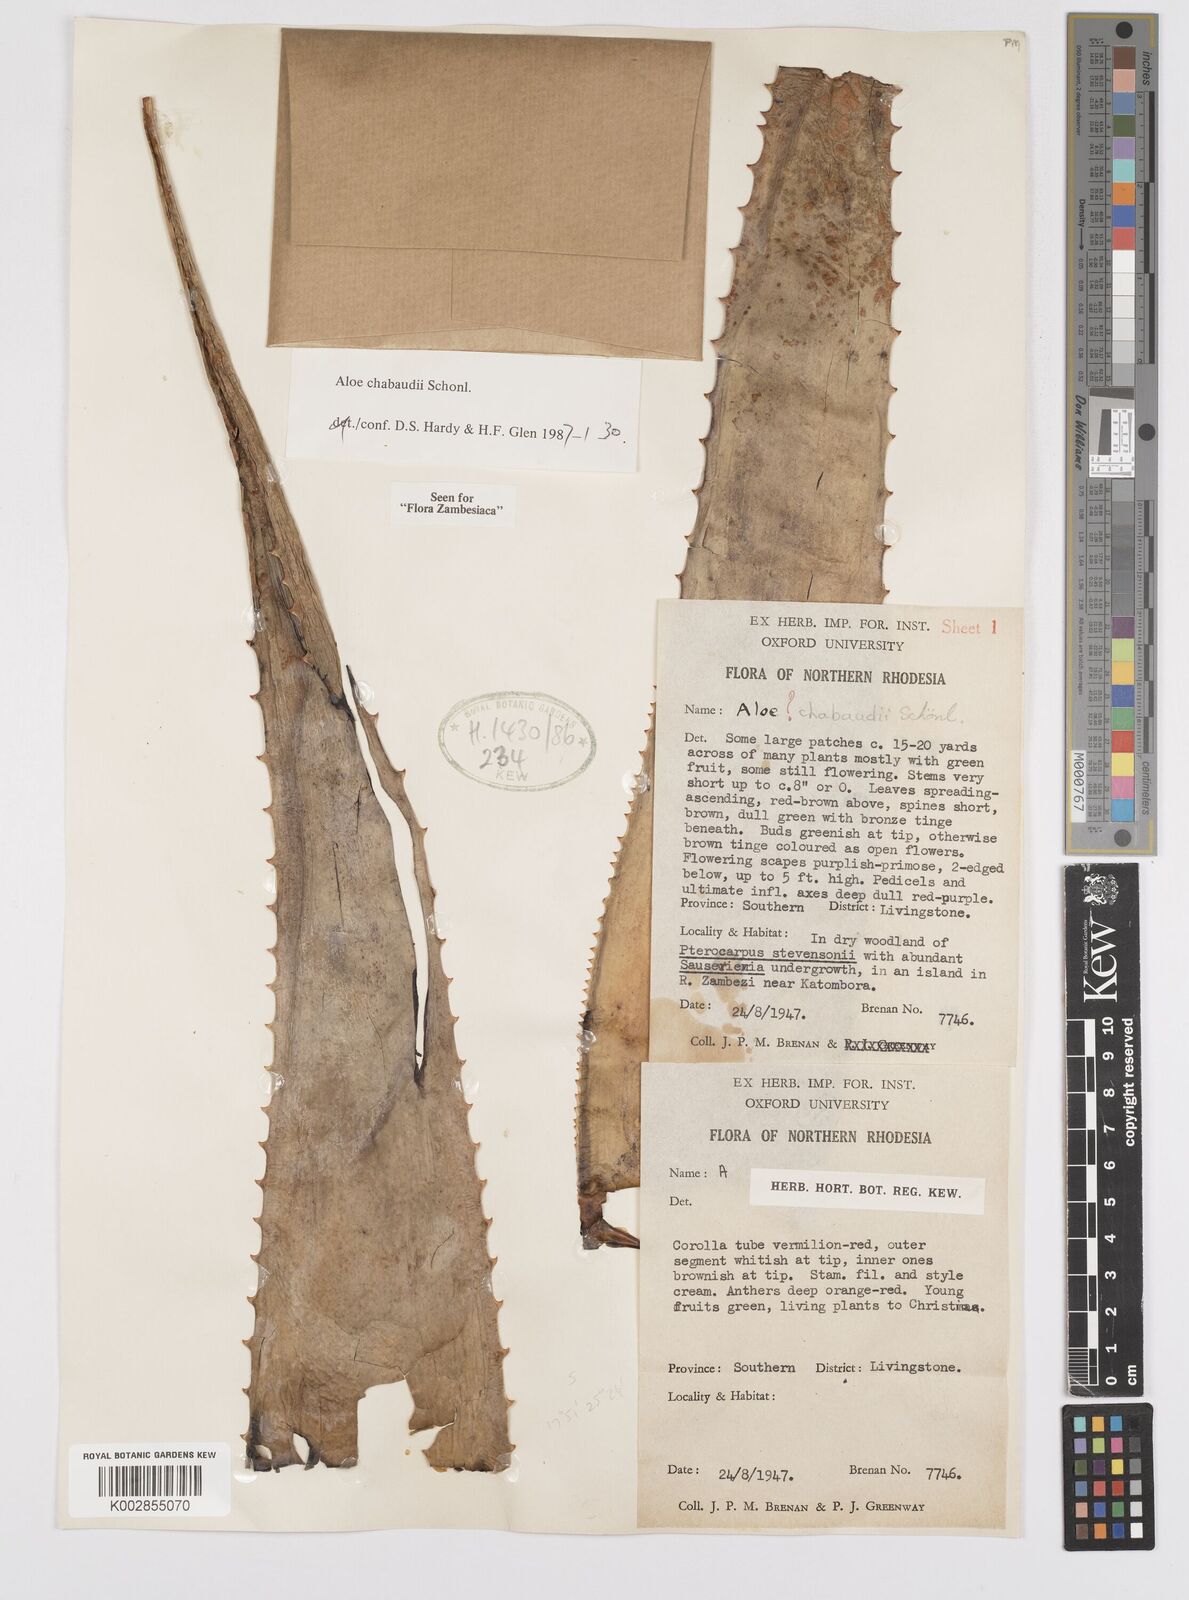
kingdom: Plantae
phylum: Tracheophyta
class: Liliopsida
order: Asparagales
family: Asphodelaceae
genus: Aloe
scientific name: Aloe chabaudii
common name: Chabaud's aloe
